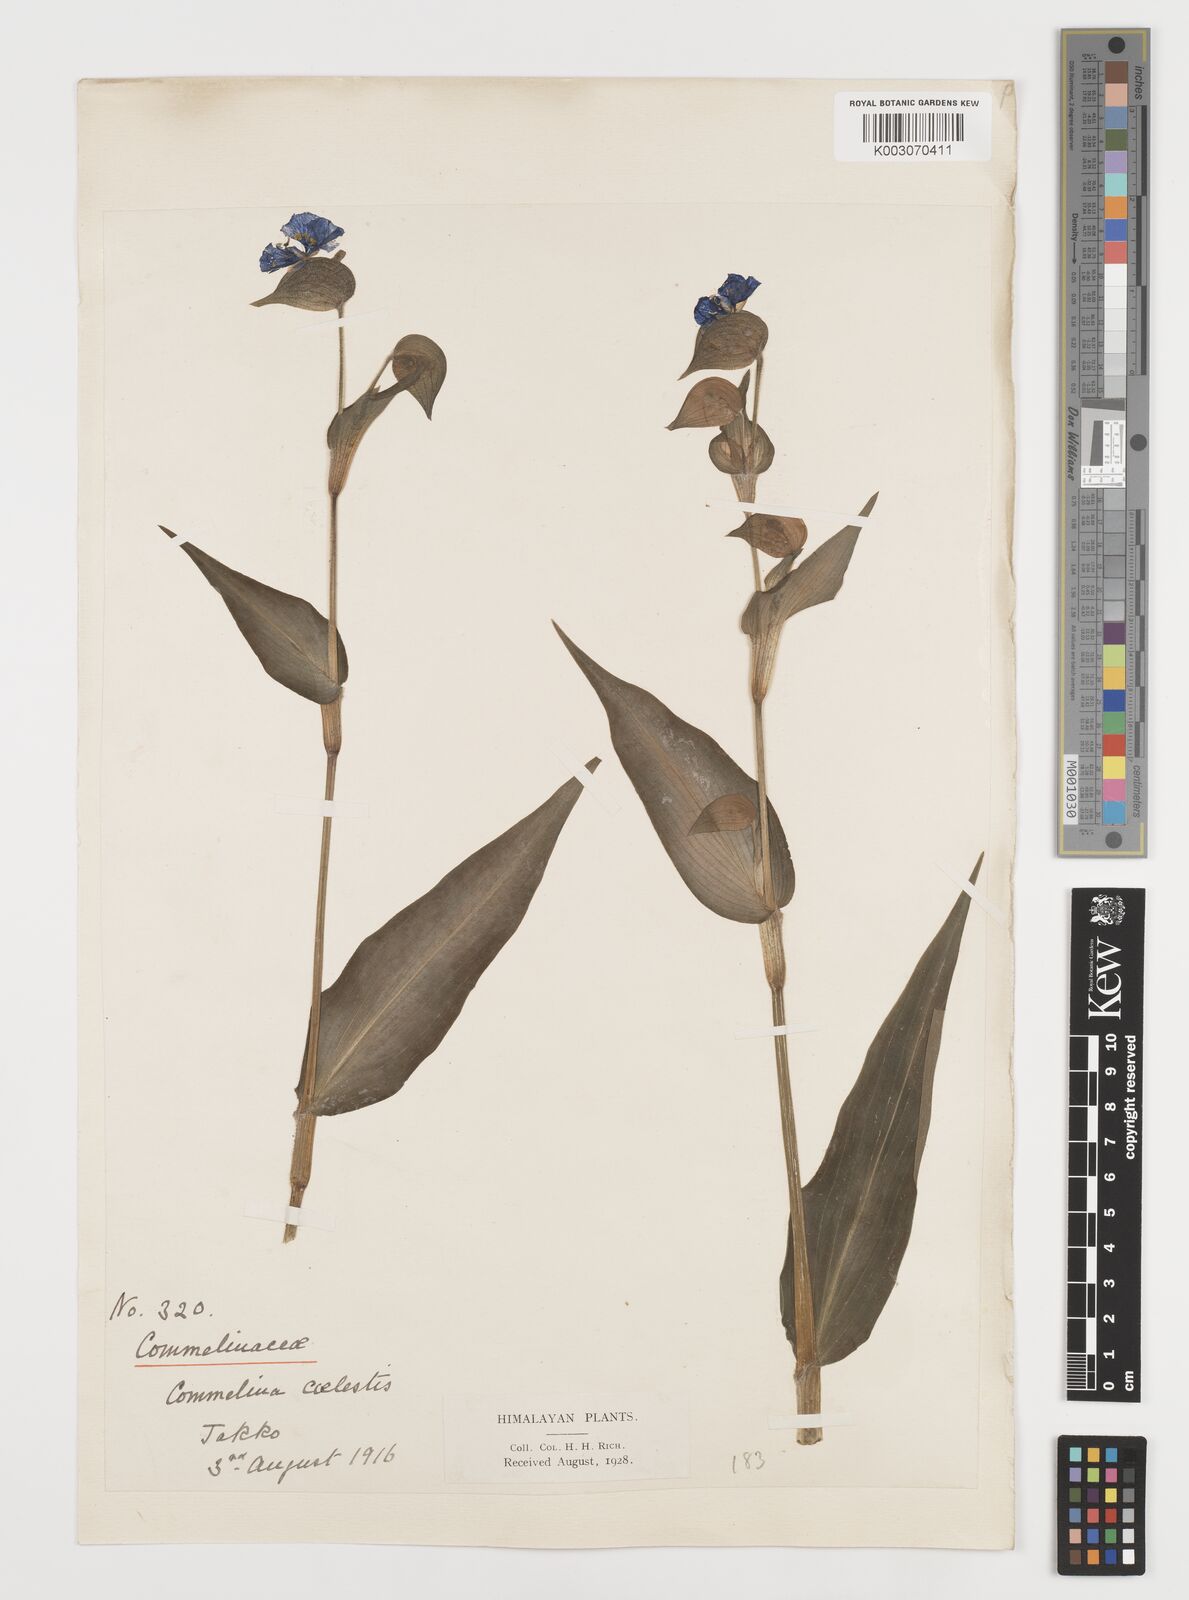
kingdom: Plantae
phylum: Tracheophyta
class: Liliopsida
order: Commelinales
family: Commelinaceae
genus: Commelina
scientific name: Commelina tuberosa
